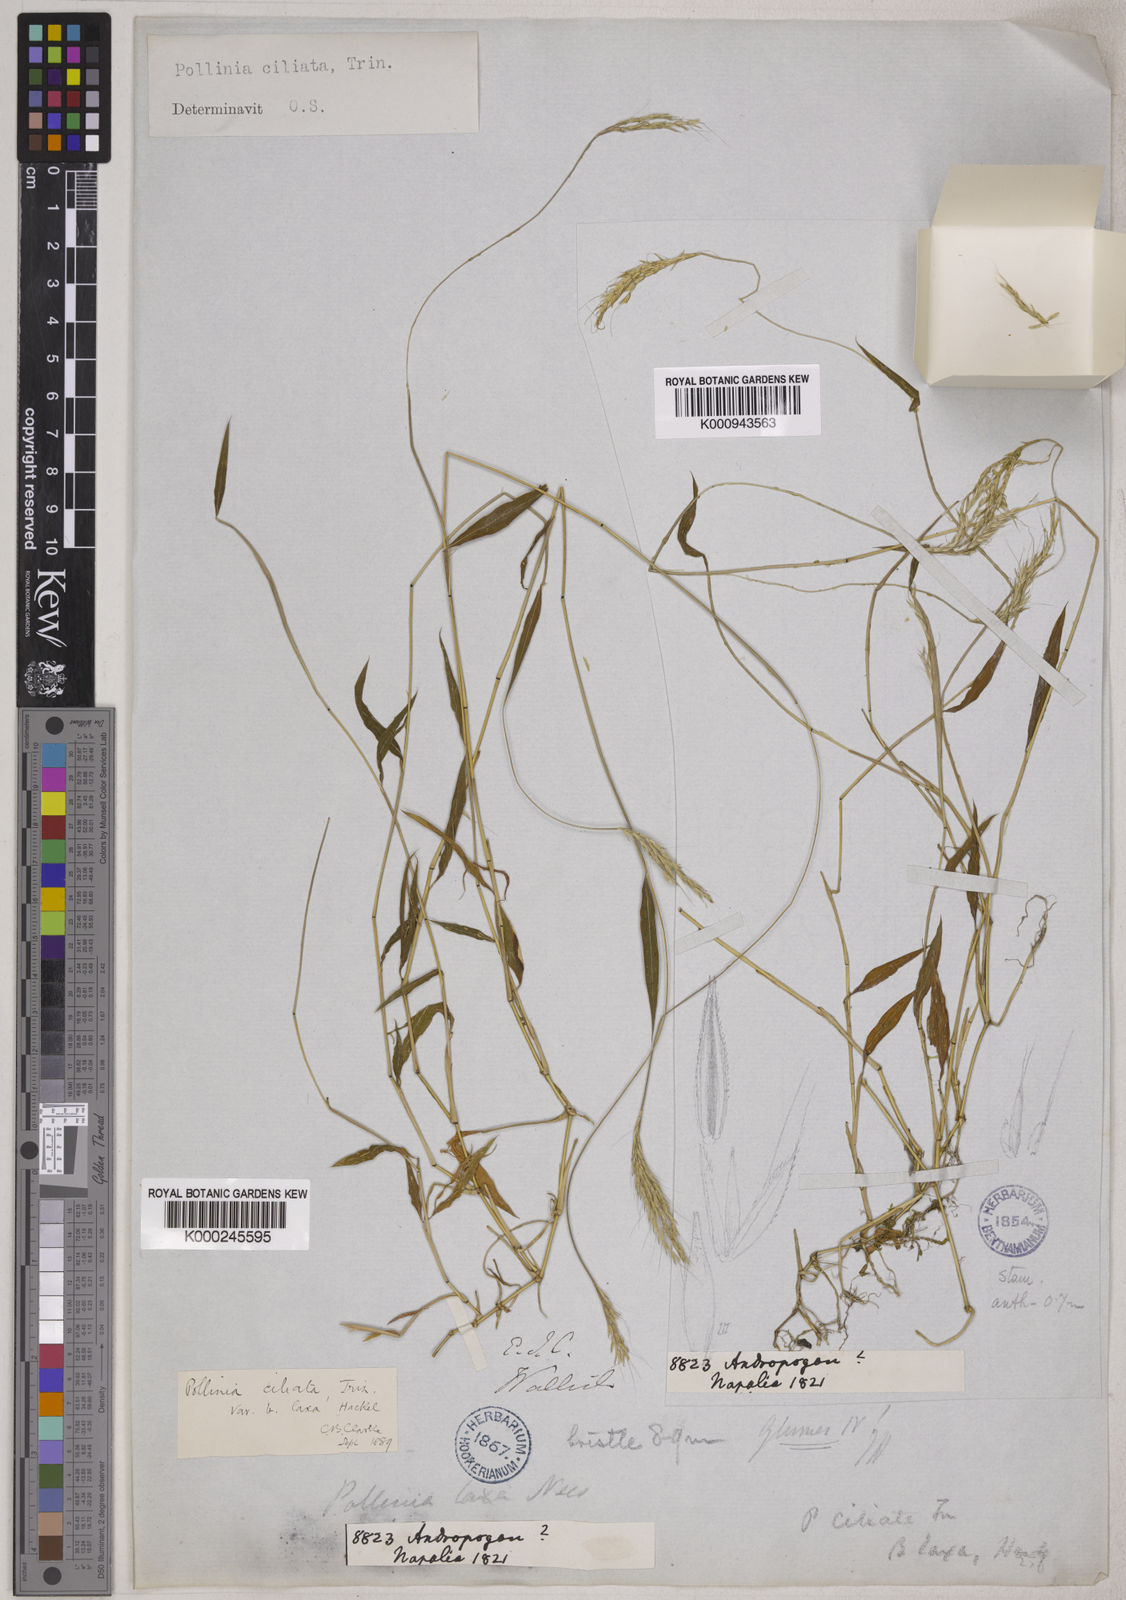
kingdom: Plantae
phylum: Tracheophyta
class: Liliopsida
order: Poales
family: Poaceae
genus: Microstegium
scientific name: Microstegium fasciculatum
